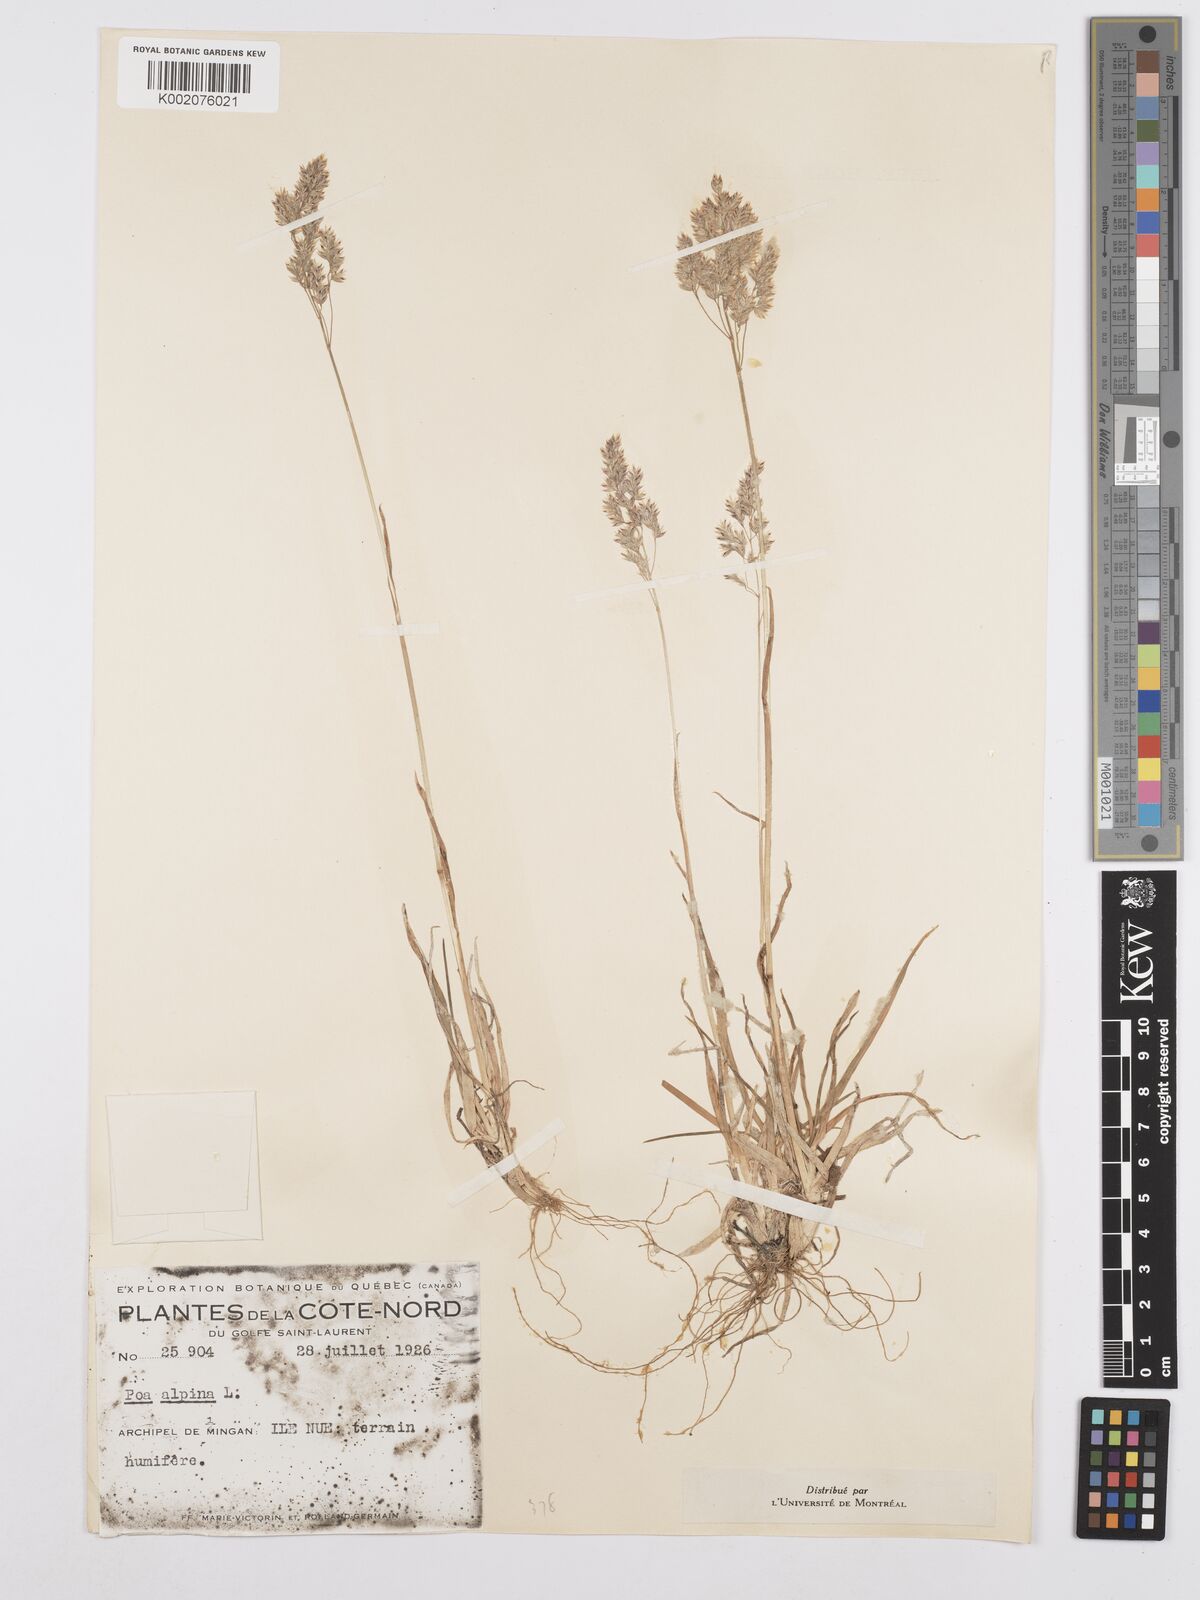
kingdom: Plantae
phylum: Tracheophyta
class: Liliopsida
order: Poales
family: Poaceae
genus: Poa
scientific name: Poa alpina
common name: Alpine bluegrass
